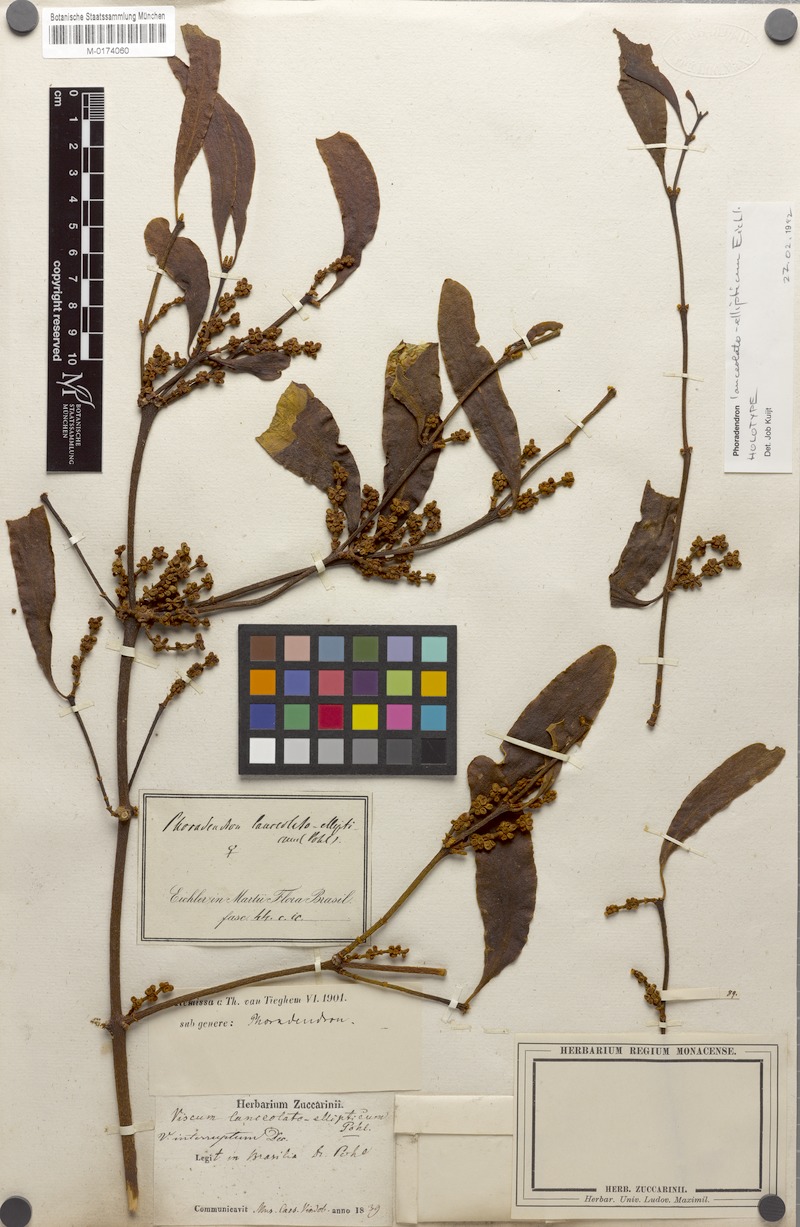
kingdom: Plantae
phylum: Tracheophyta
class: Magnoliopsida
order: Santalales
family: Viscaceae
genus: Phoradendron
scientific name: Phoradendron interruptum
